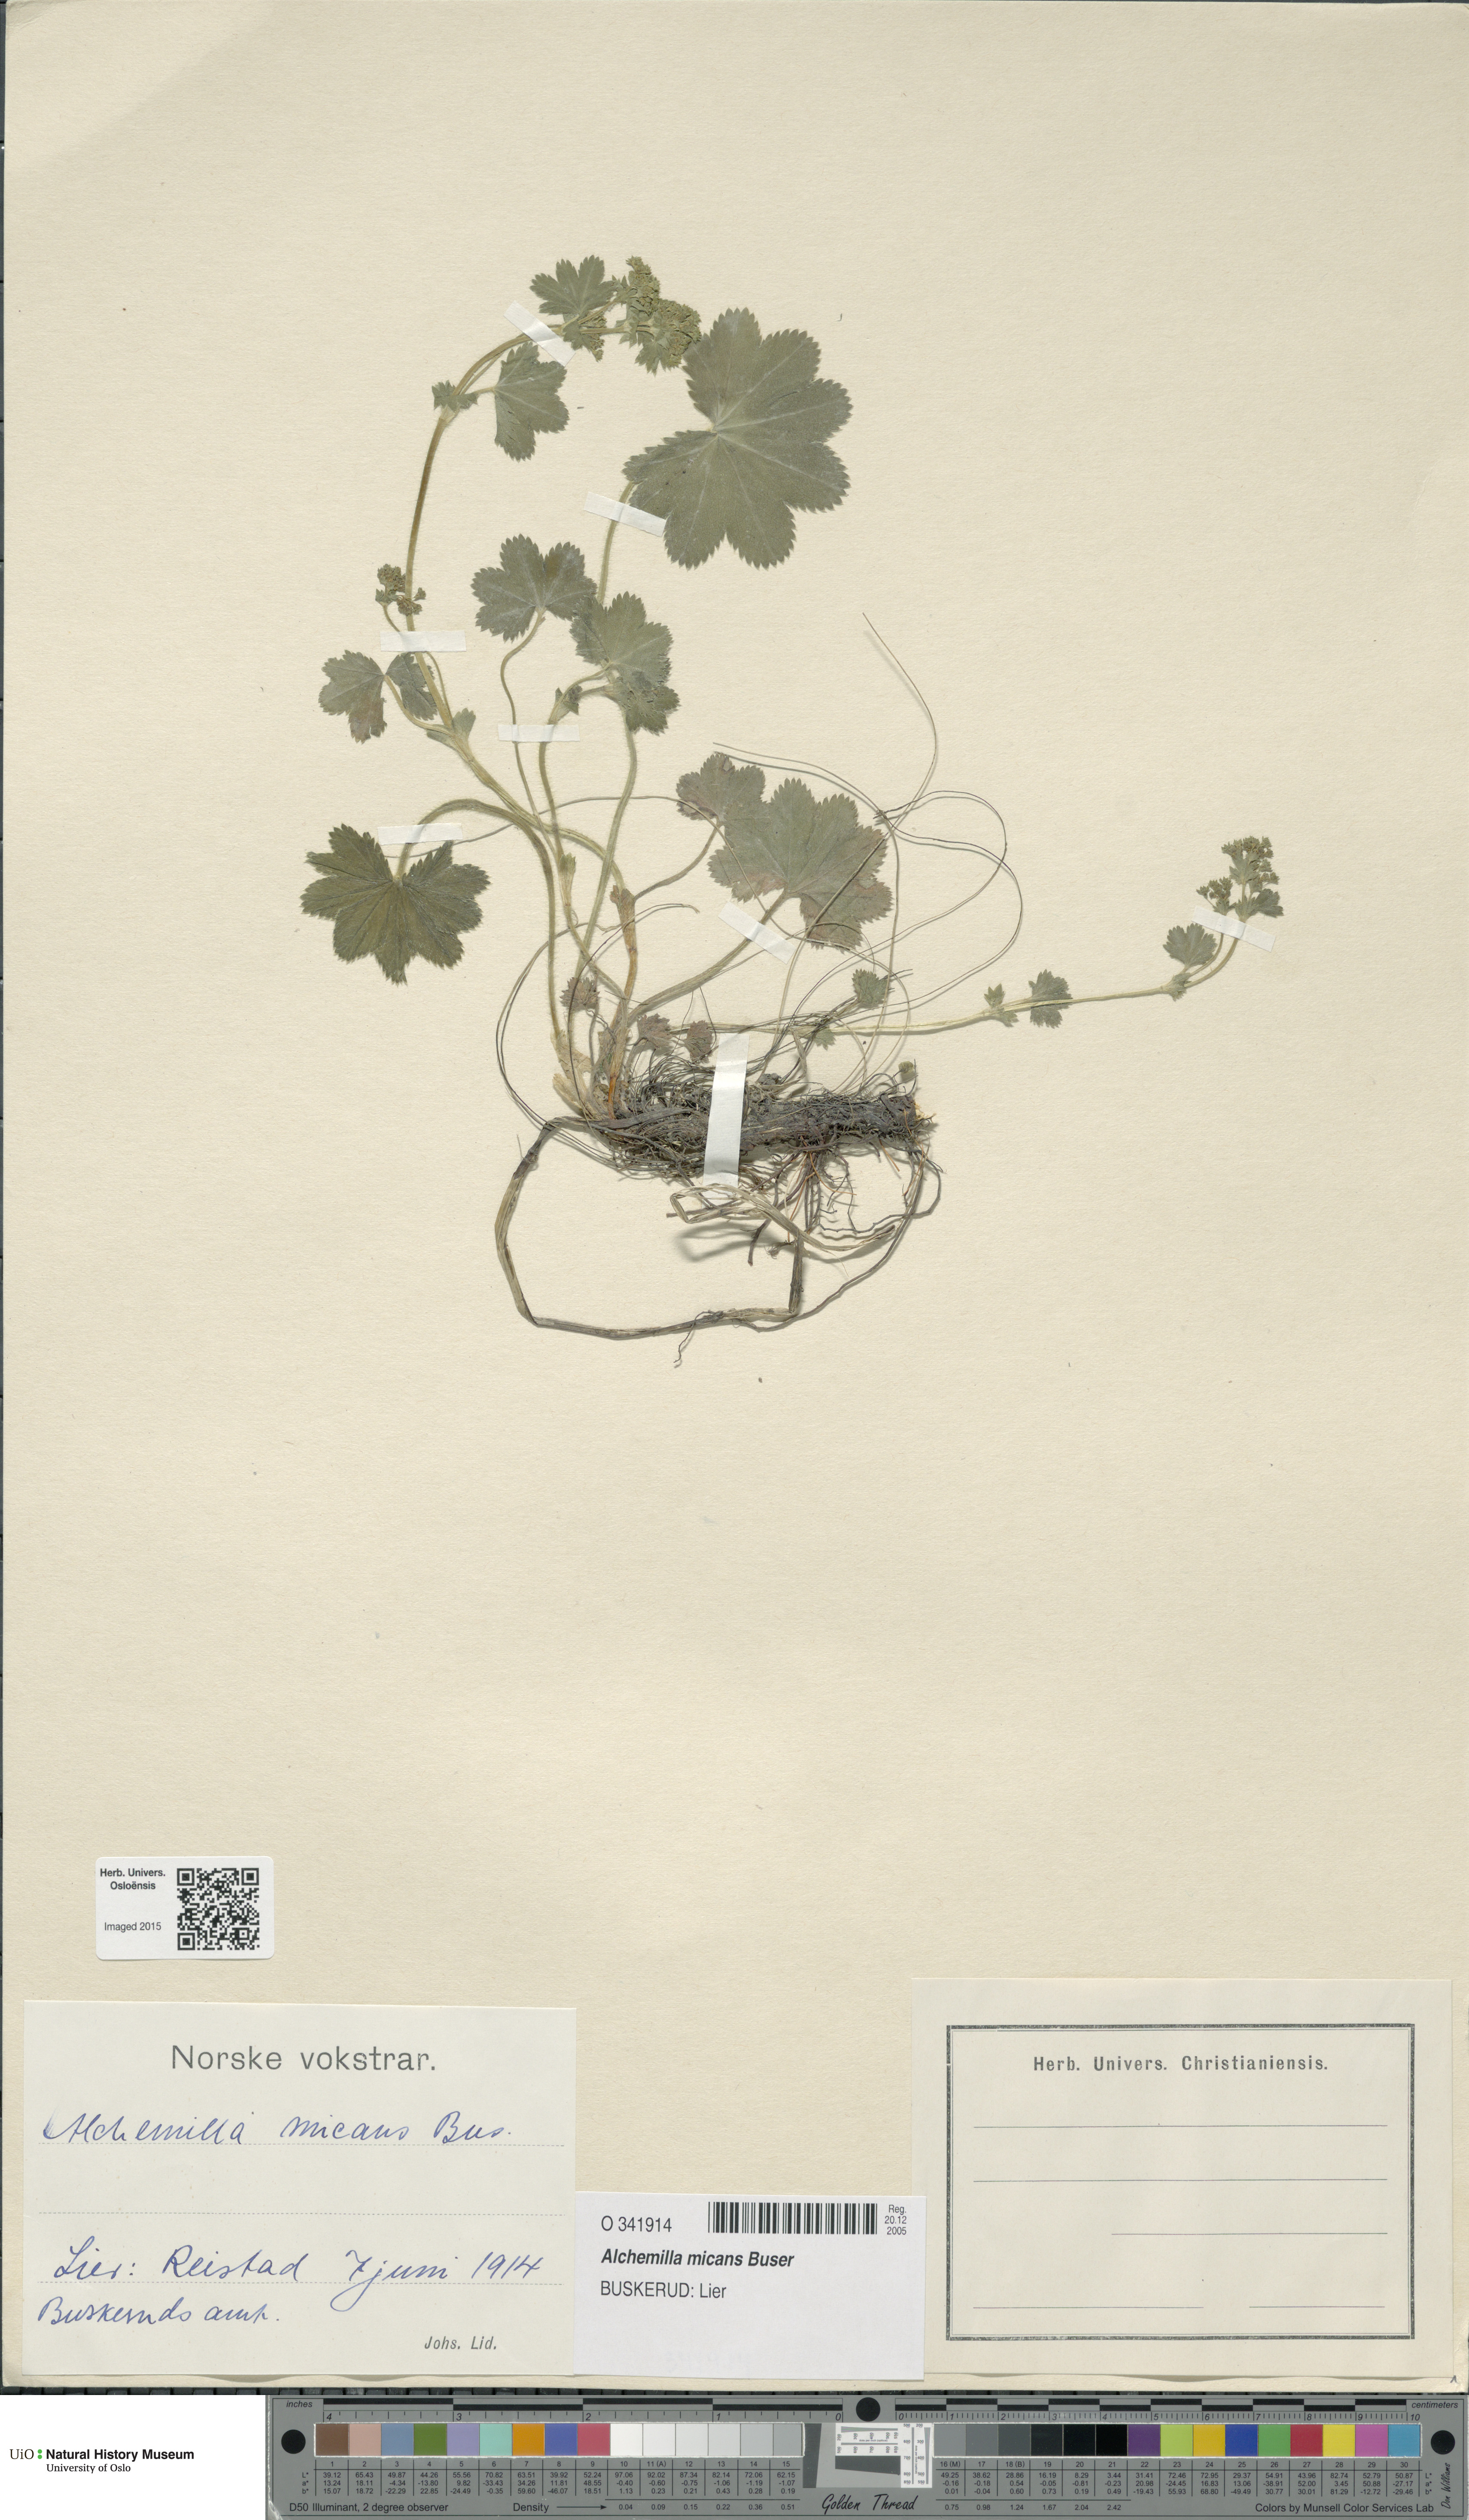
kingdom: Plantae
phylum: Tracheophyta
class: Magnoliopsida
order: Rosales
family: Rosaceae
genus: Alchemilla
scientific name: Alchemilla micans
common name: Gleaming lady's mantle
